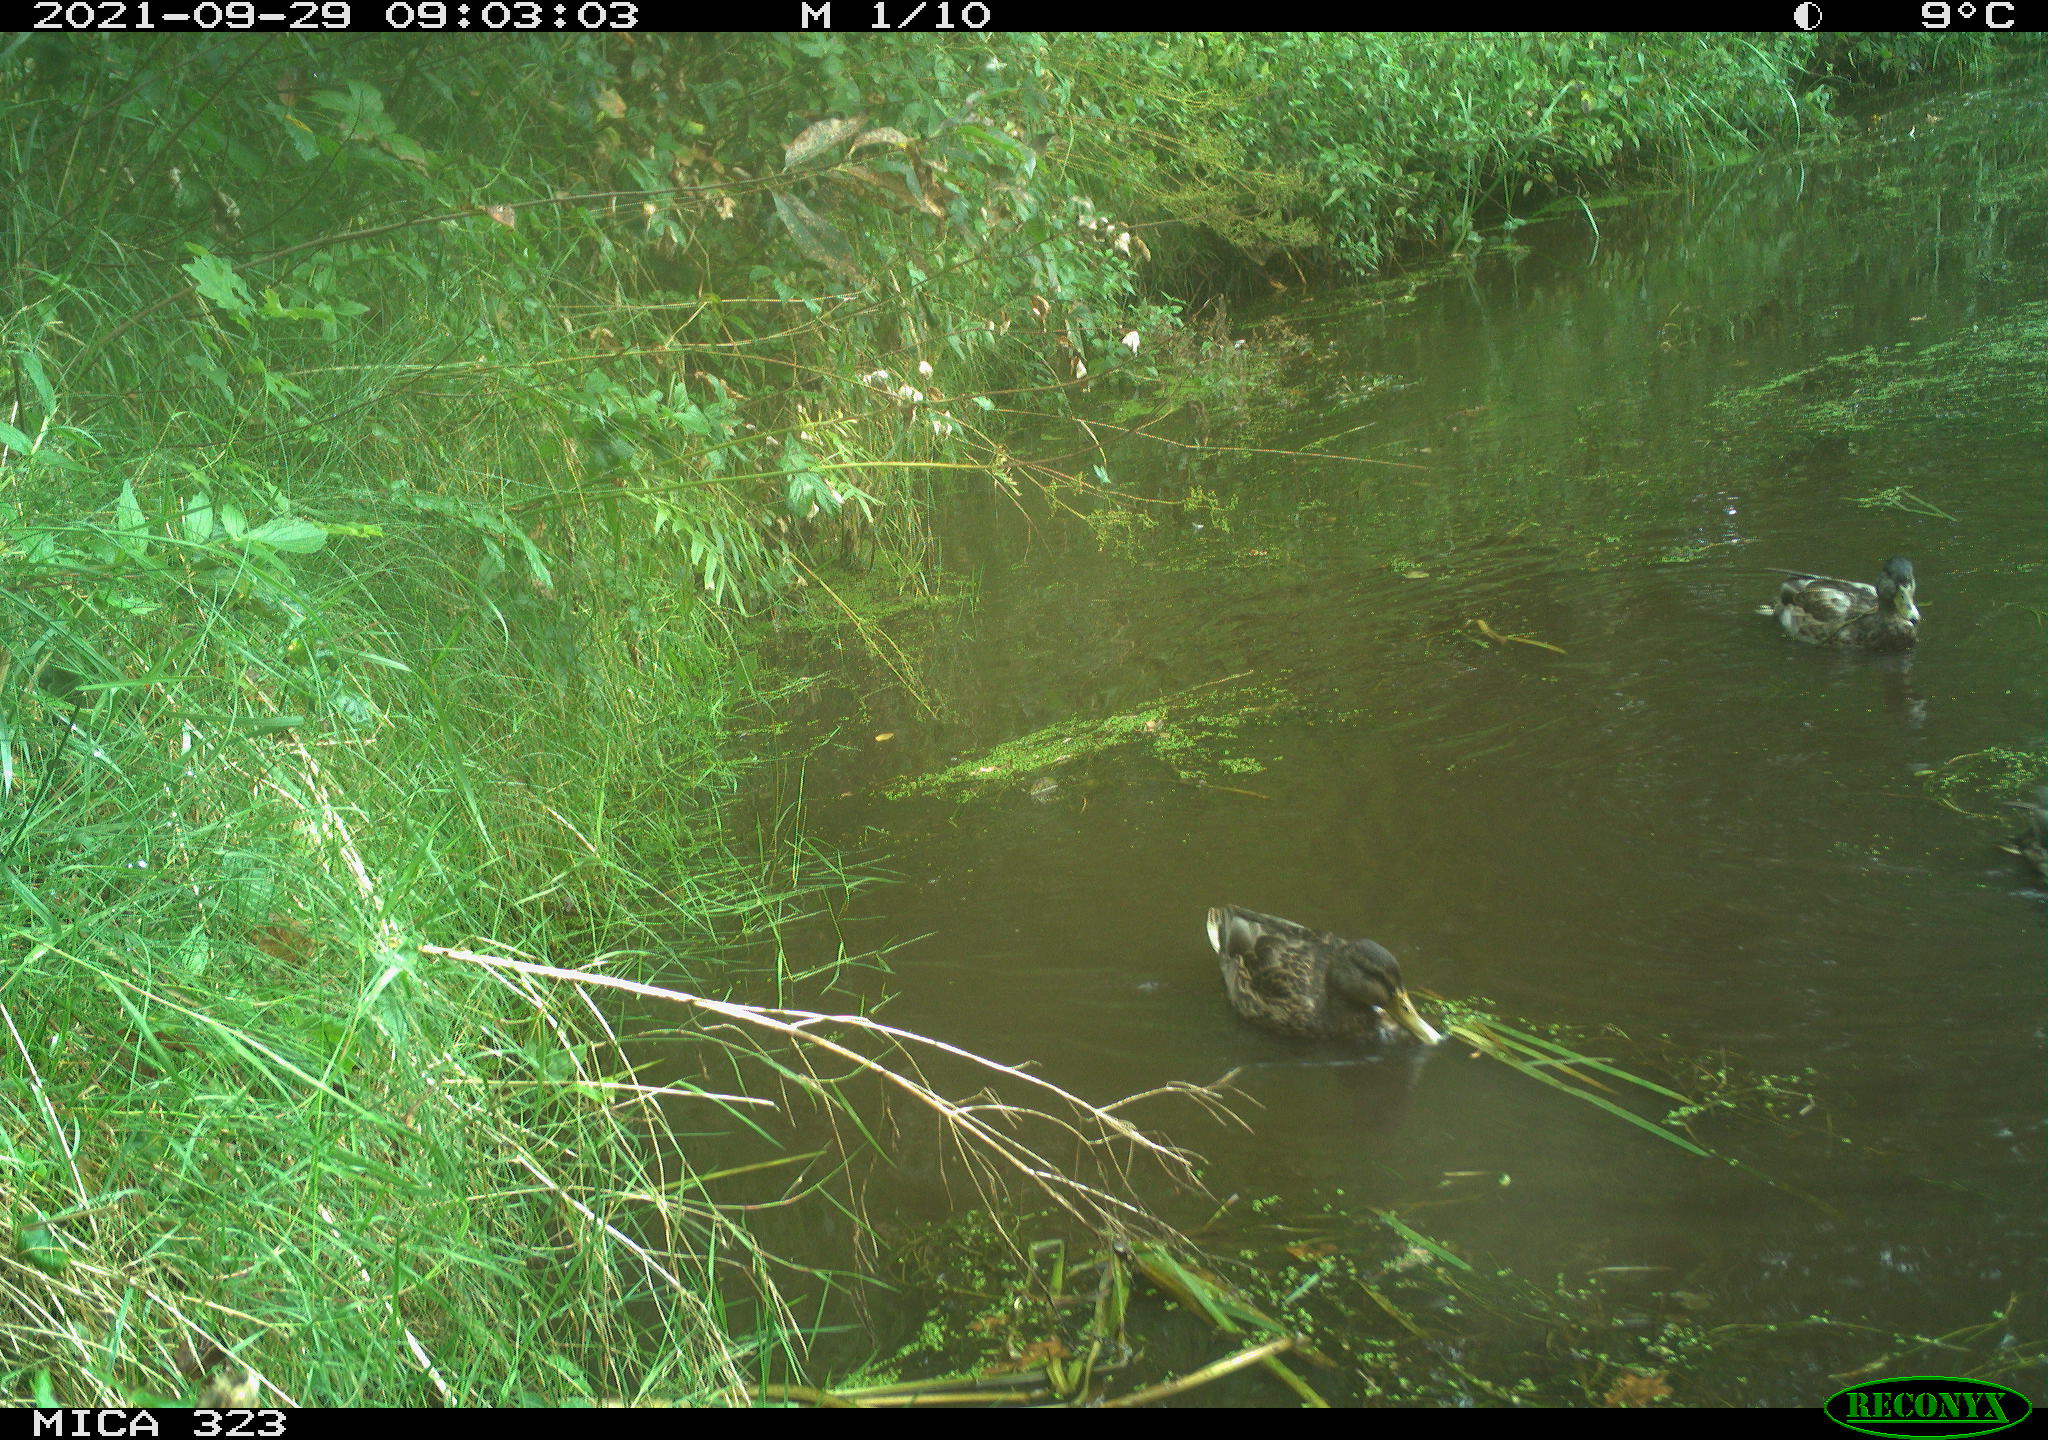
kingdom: Animalia
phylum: Chordata
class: Aves
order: Anseriformes
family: Anatidae
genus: Anas
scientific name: Anas platyrhynchos
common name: Mallard
